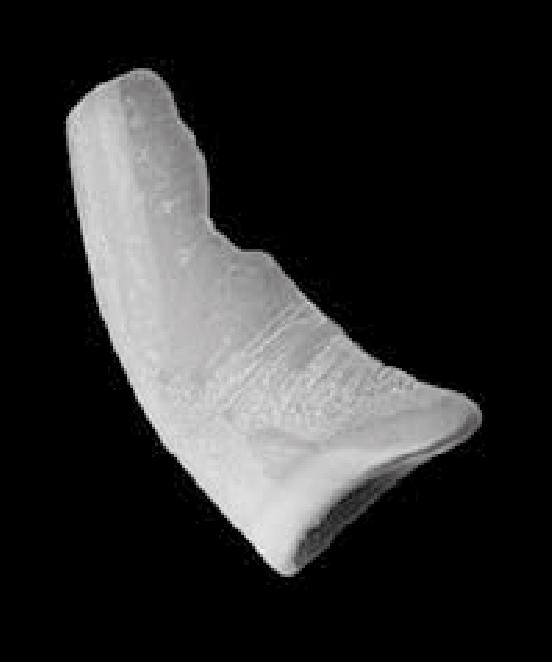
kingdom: Animalia
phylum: Chordata
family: Protopanderodontidae
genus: Juanognathus
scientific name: Juanognathus
